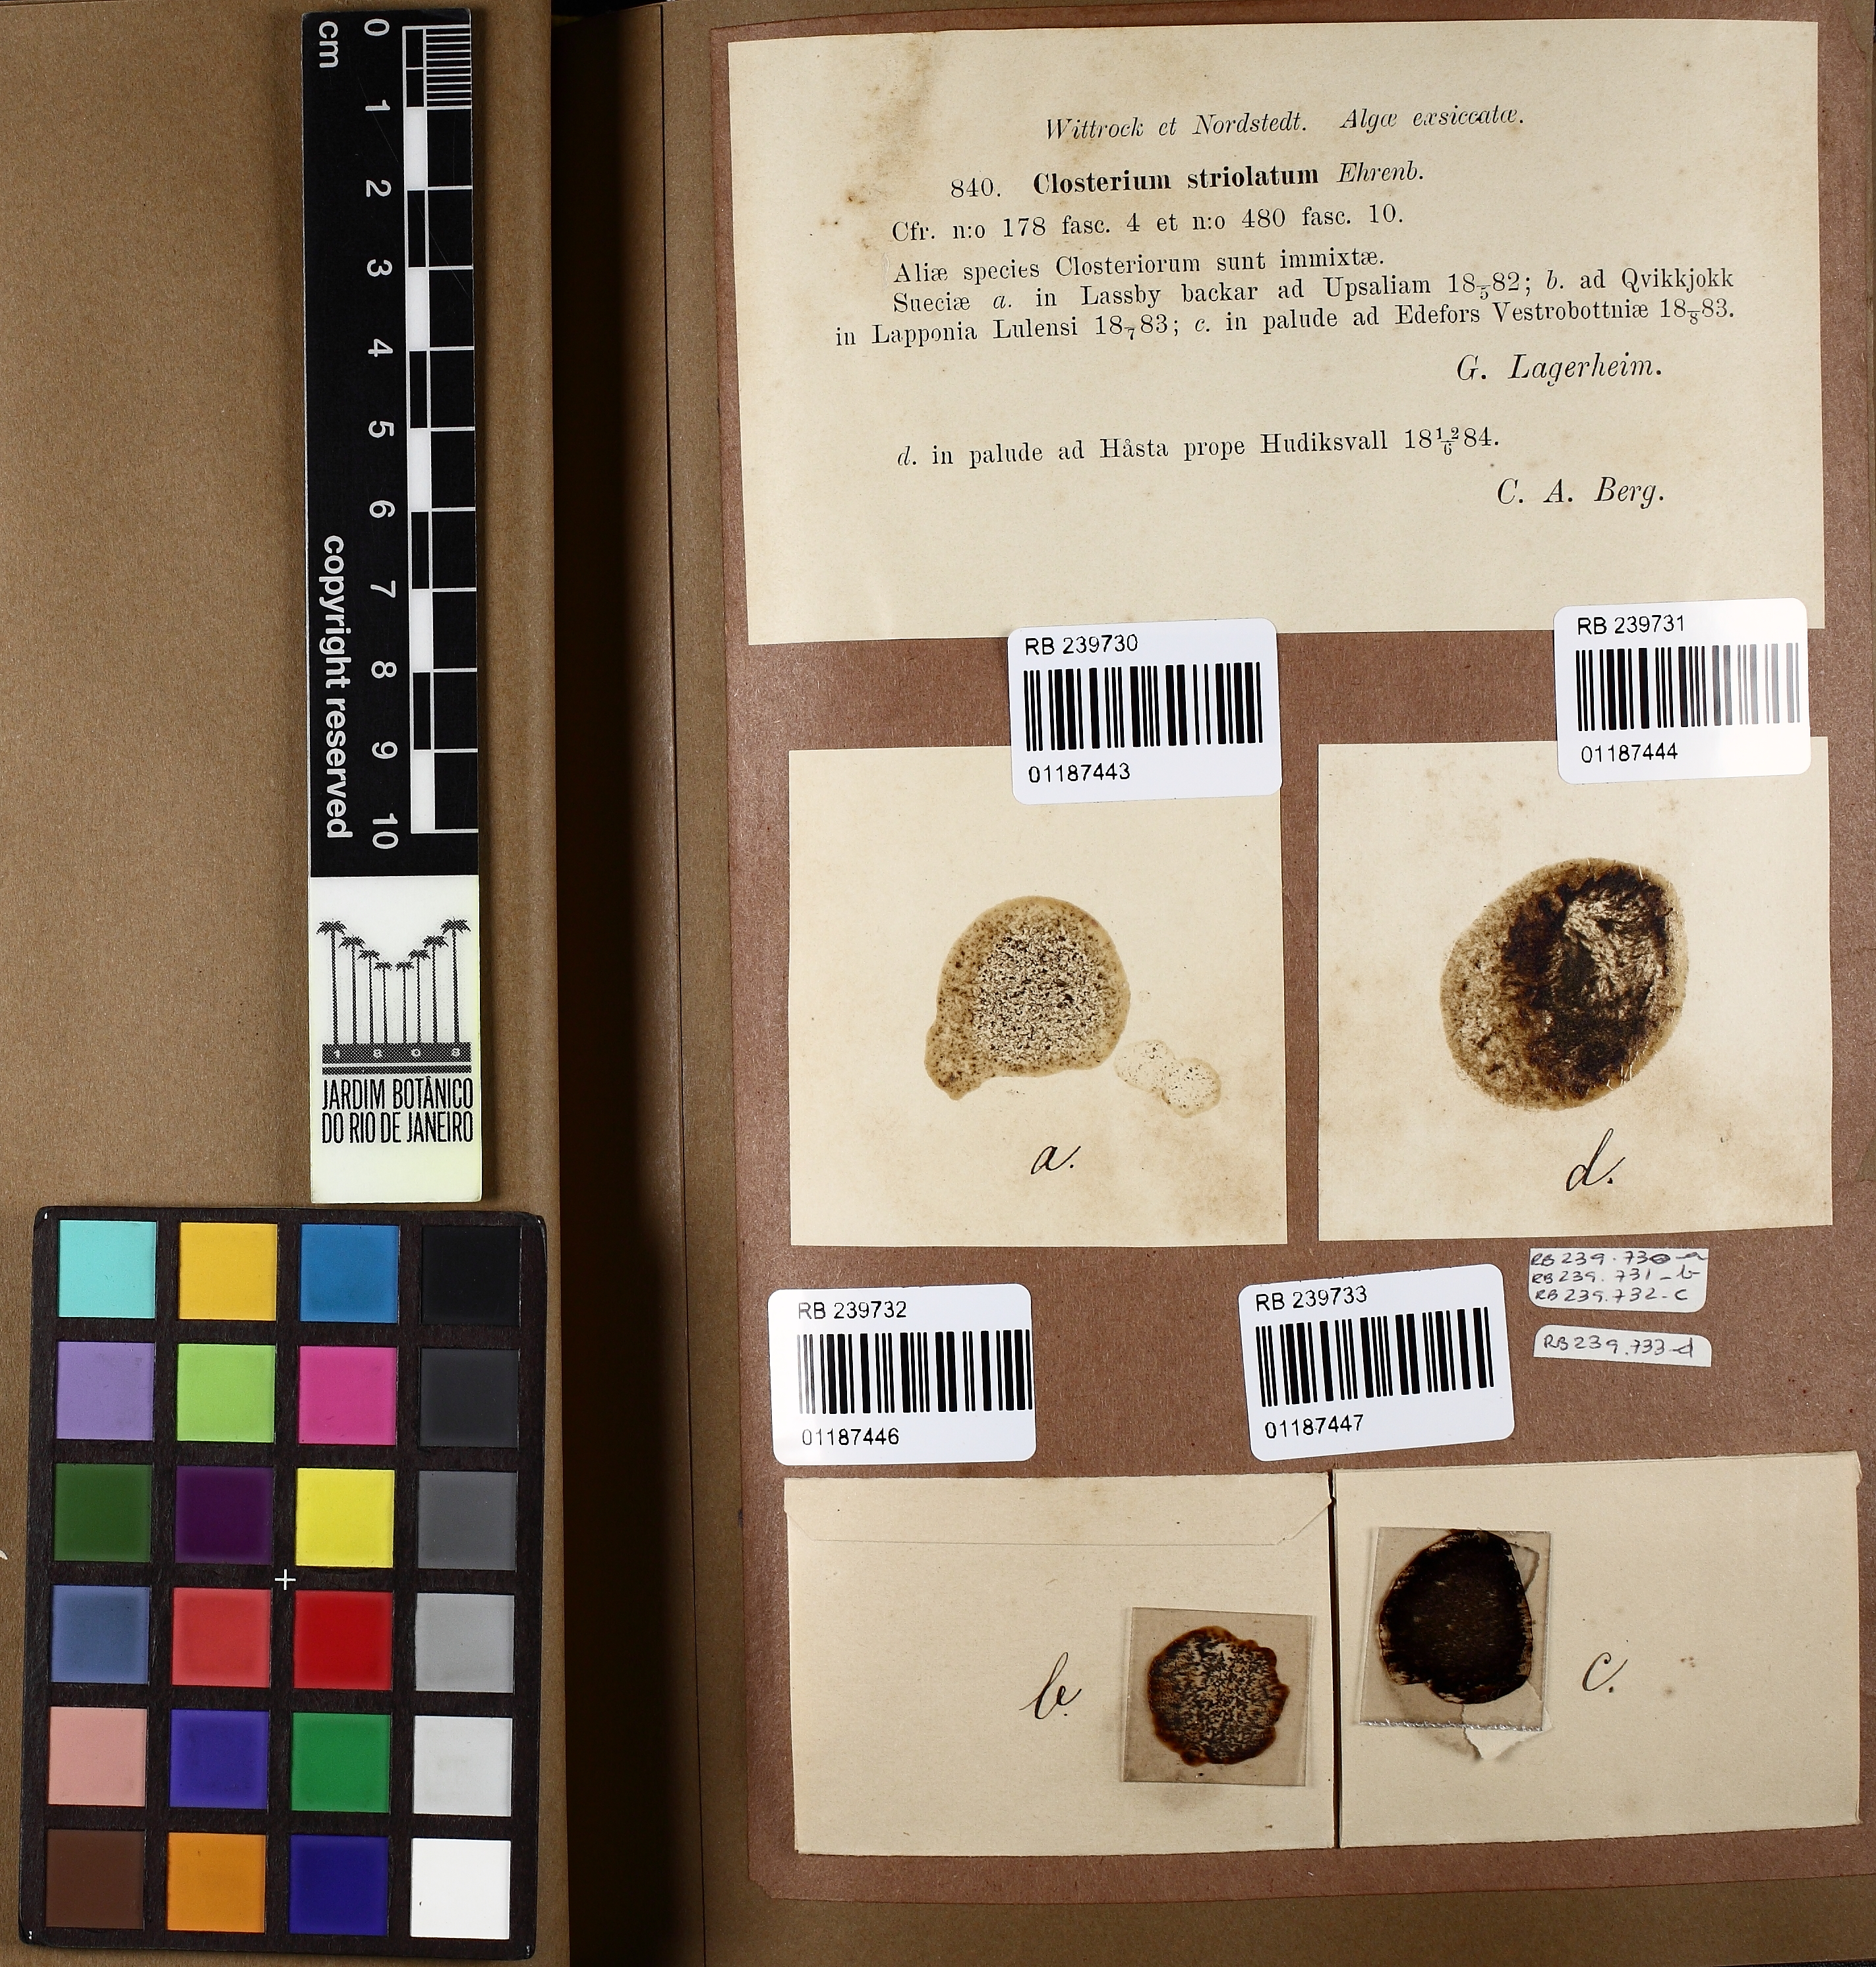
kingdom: Plantae
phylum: Charophyta
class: Zygnematophyceae
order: Zygnematales
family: Closteriaceae
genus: Closterium
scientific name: Closterium striolatum
